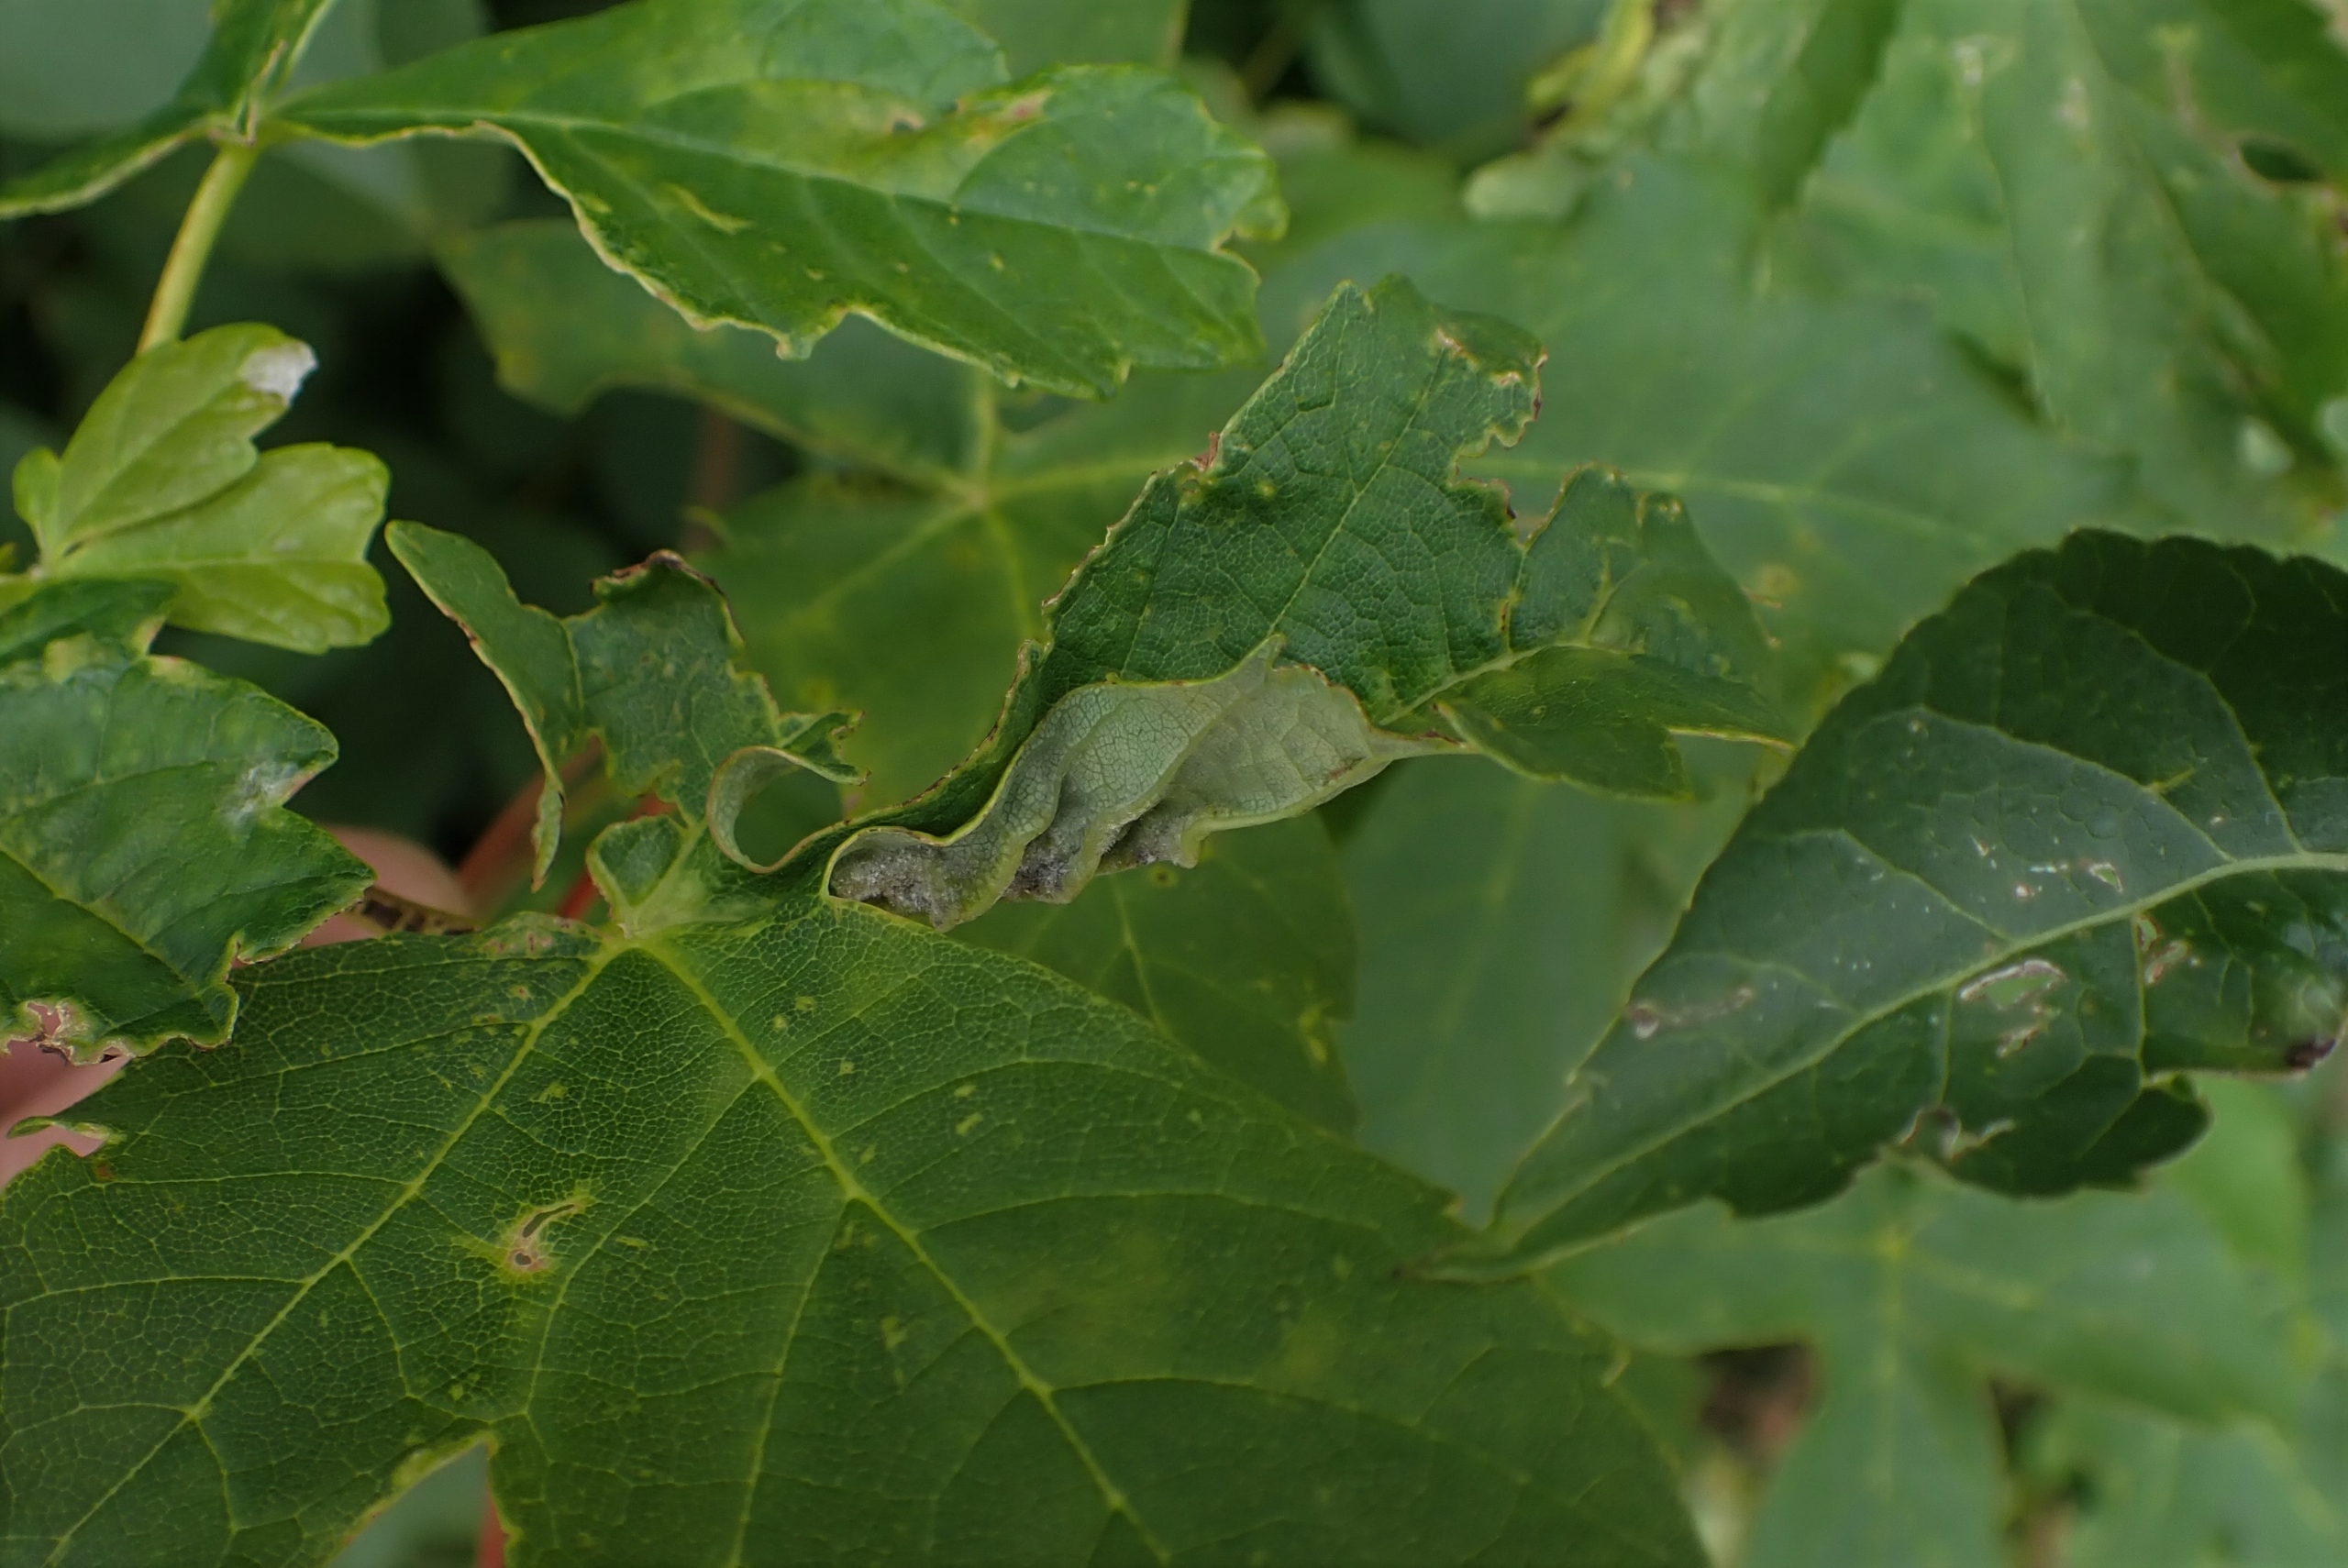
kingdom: Animalia
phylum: Arthropoda
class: Insecta
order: Diptera
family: Cecidomyiidae
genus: Dasineura
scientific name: Dasineura irregularis
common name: Ahornkrusegalmyg
